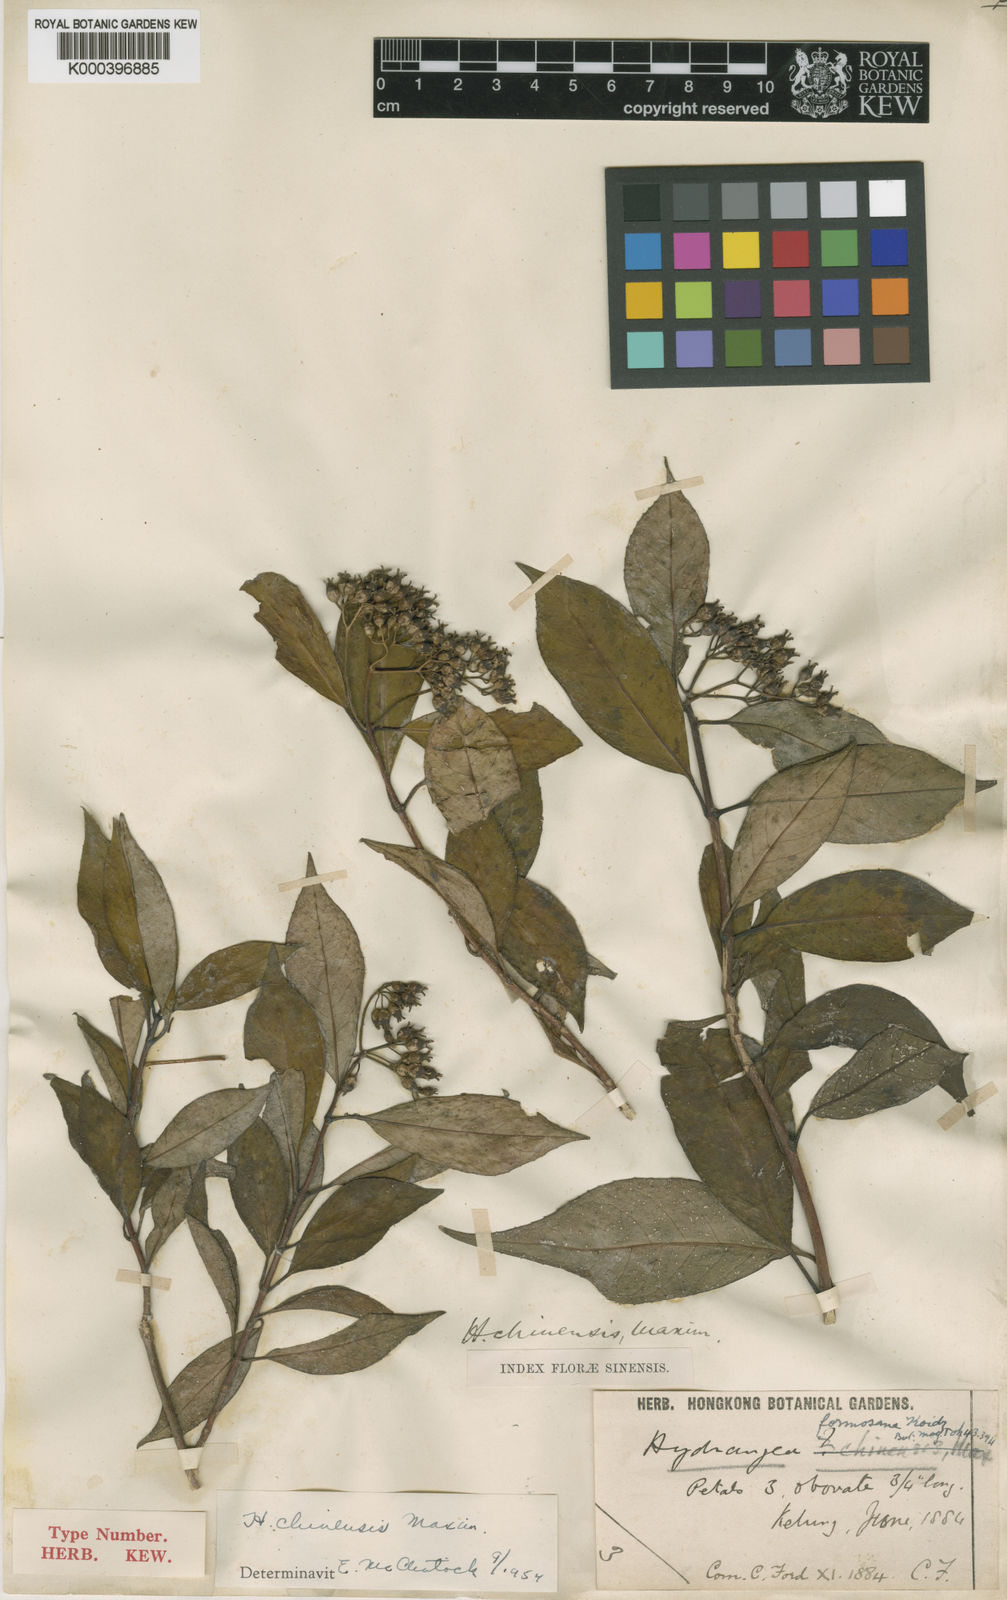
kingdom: Plantae
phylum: Tracheophyta
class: Magnoliopsida
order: Cornales
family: Hydrangeaceae
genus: Hydrangea
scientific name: Hydrangea chinensis
